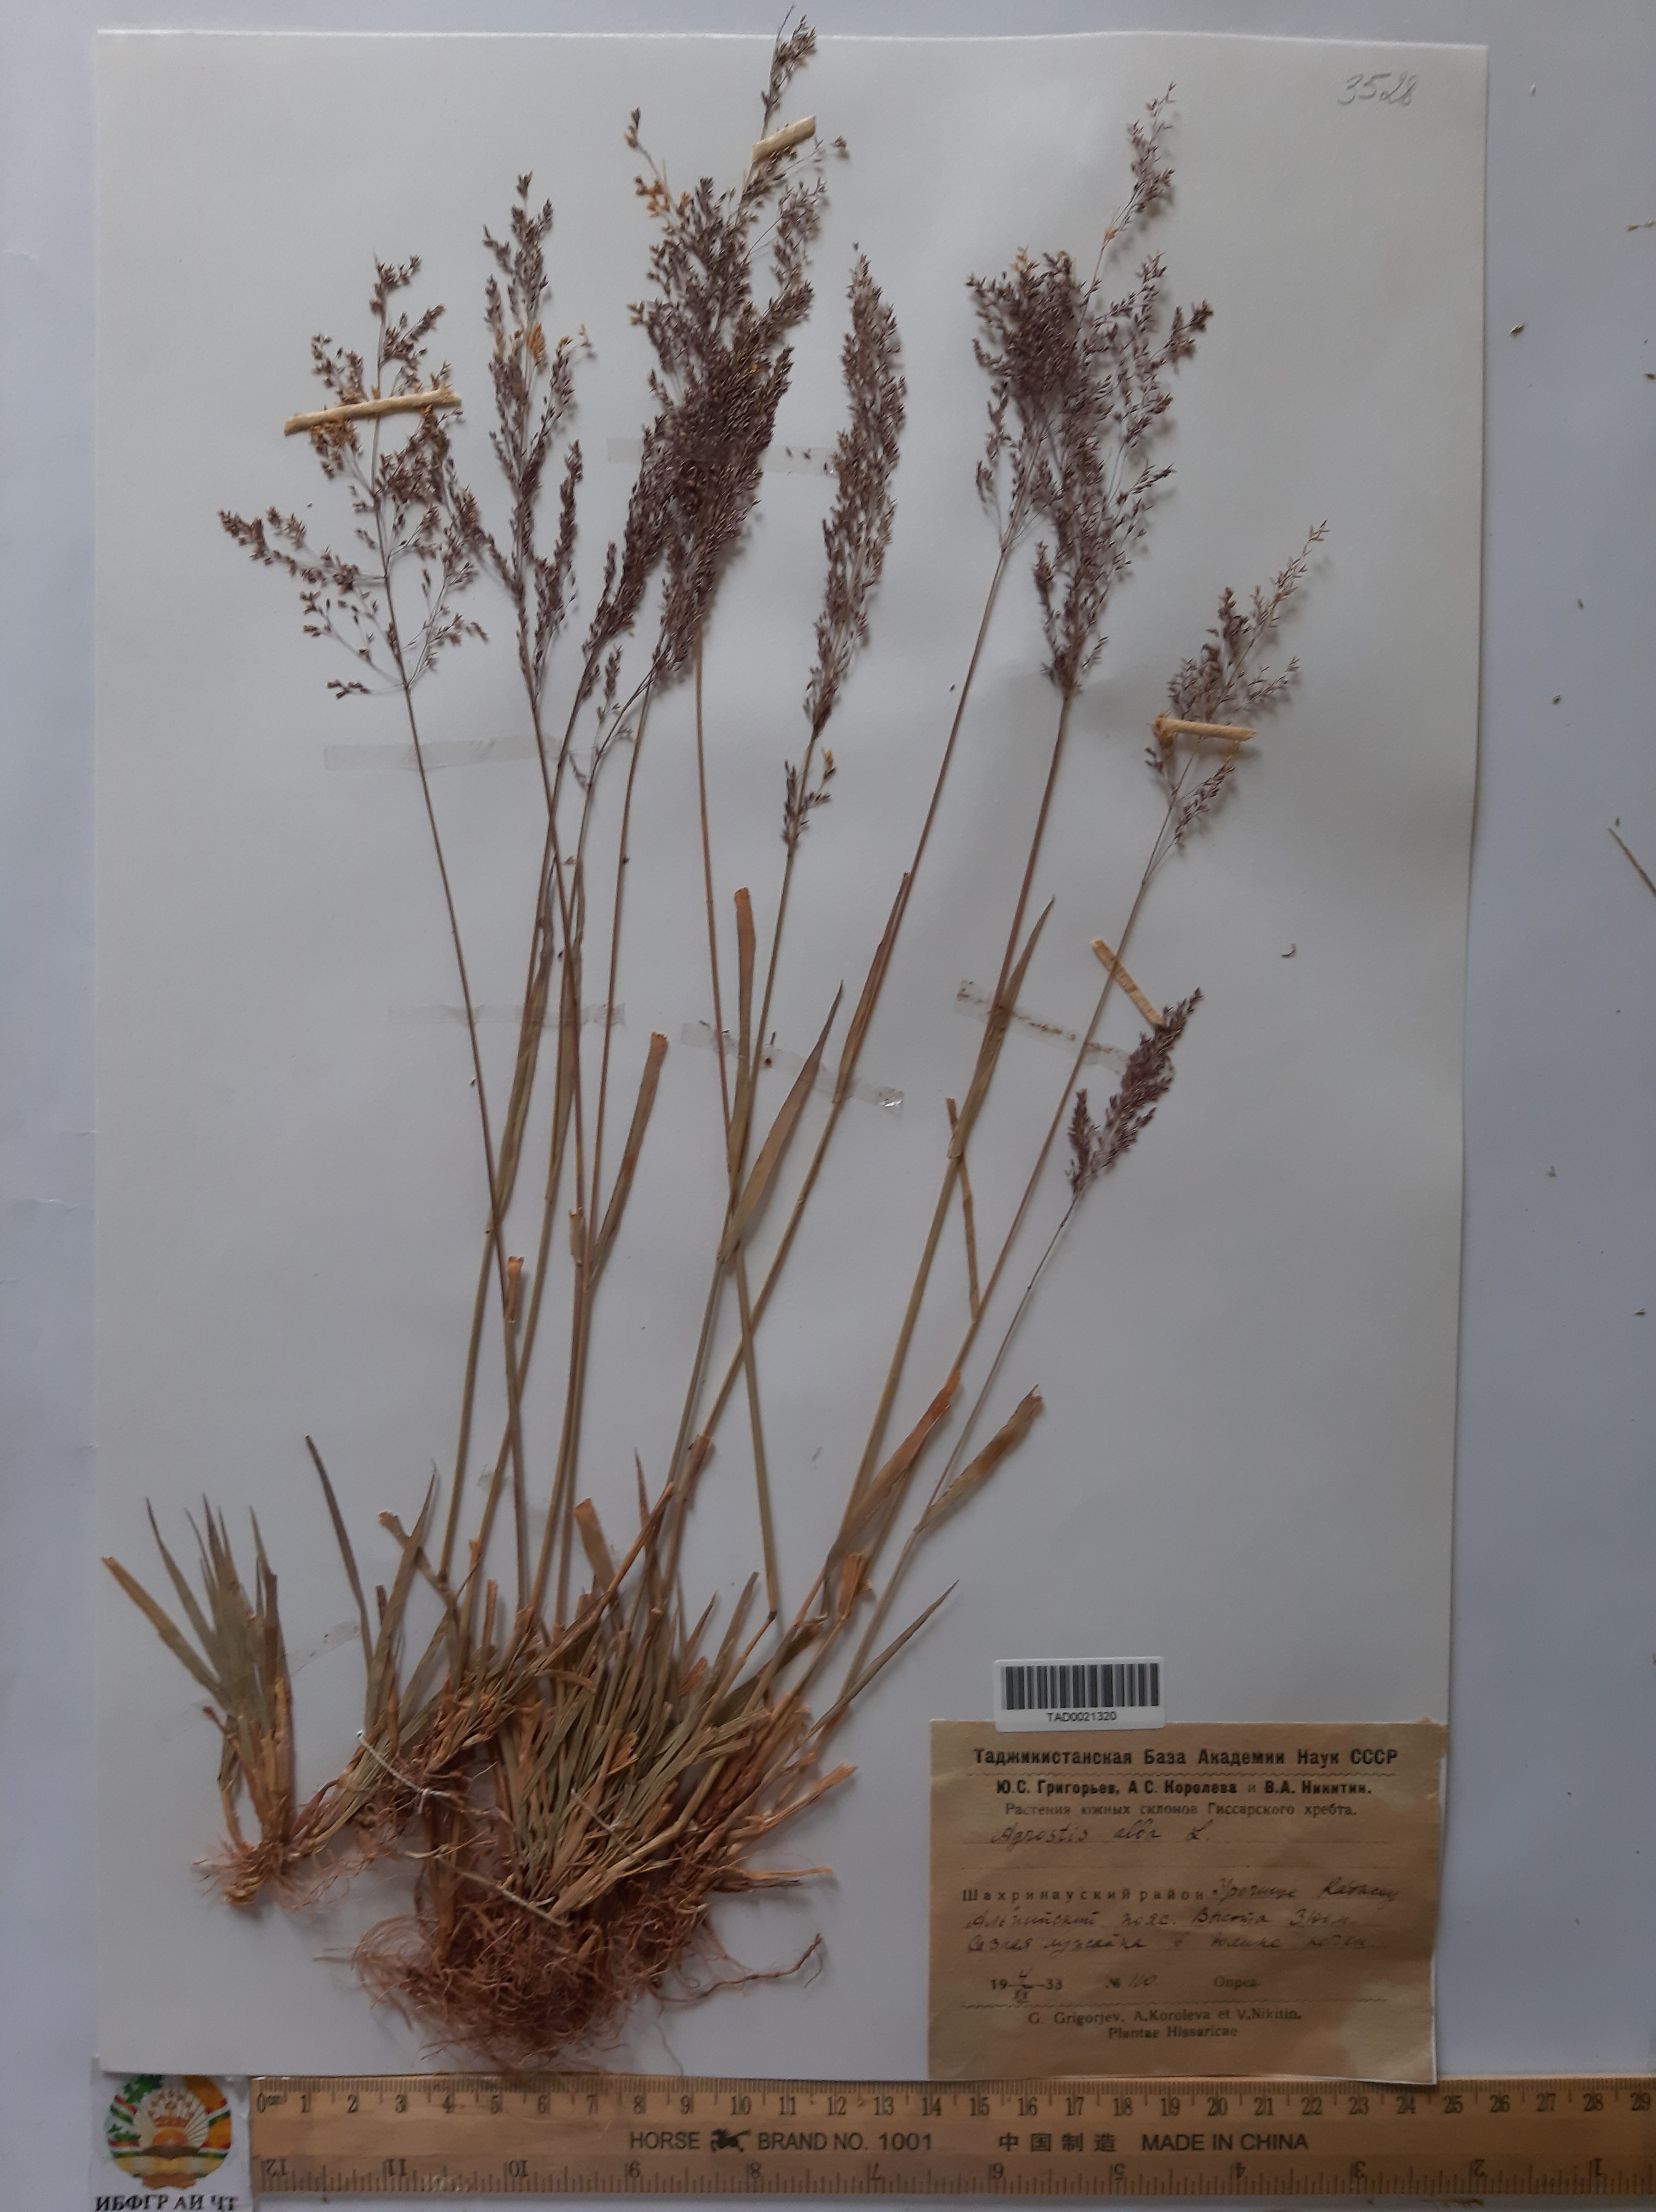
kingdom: Plantae
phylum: Tracheophyta
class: Liliopsida
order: Poales
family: Poaceae
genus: Poa
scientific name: Poa nemoralis
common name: Wood bluegrass
